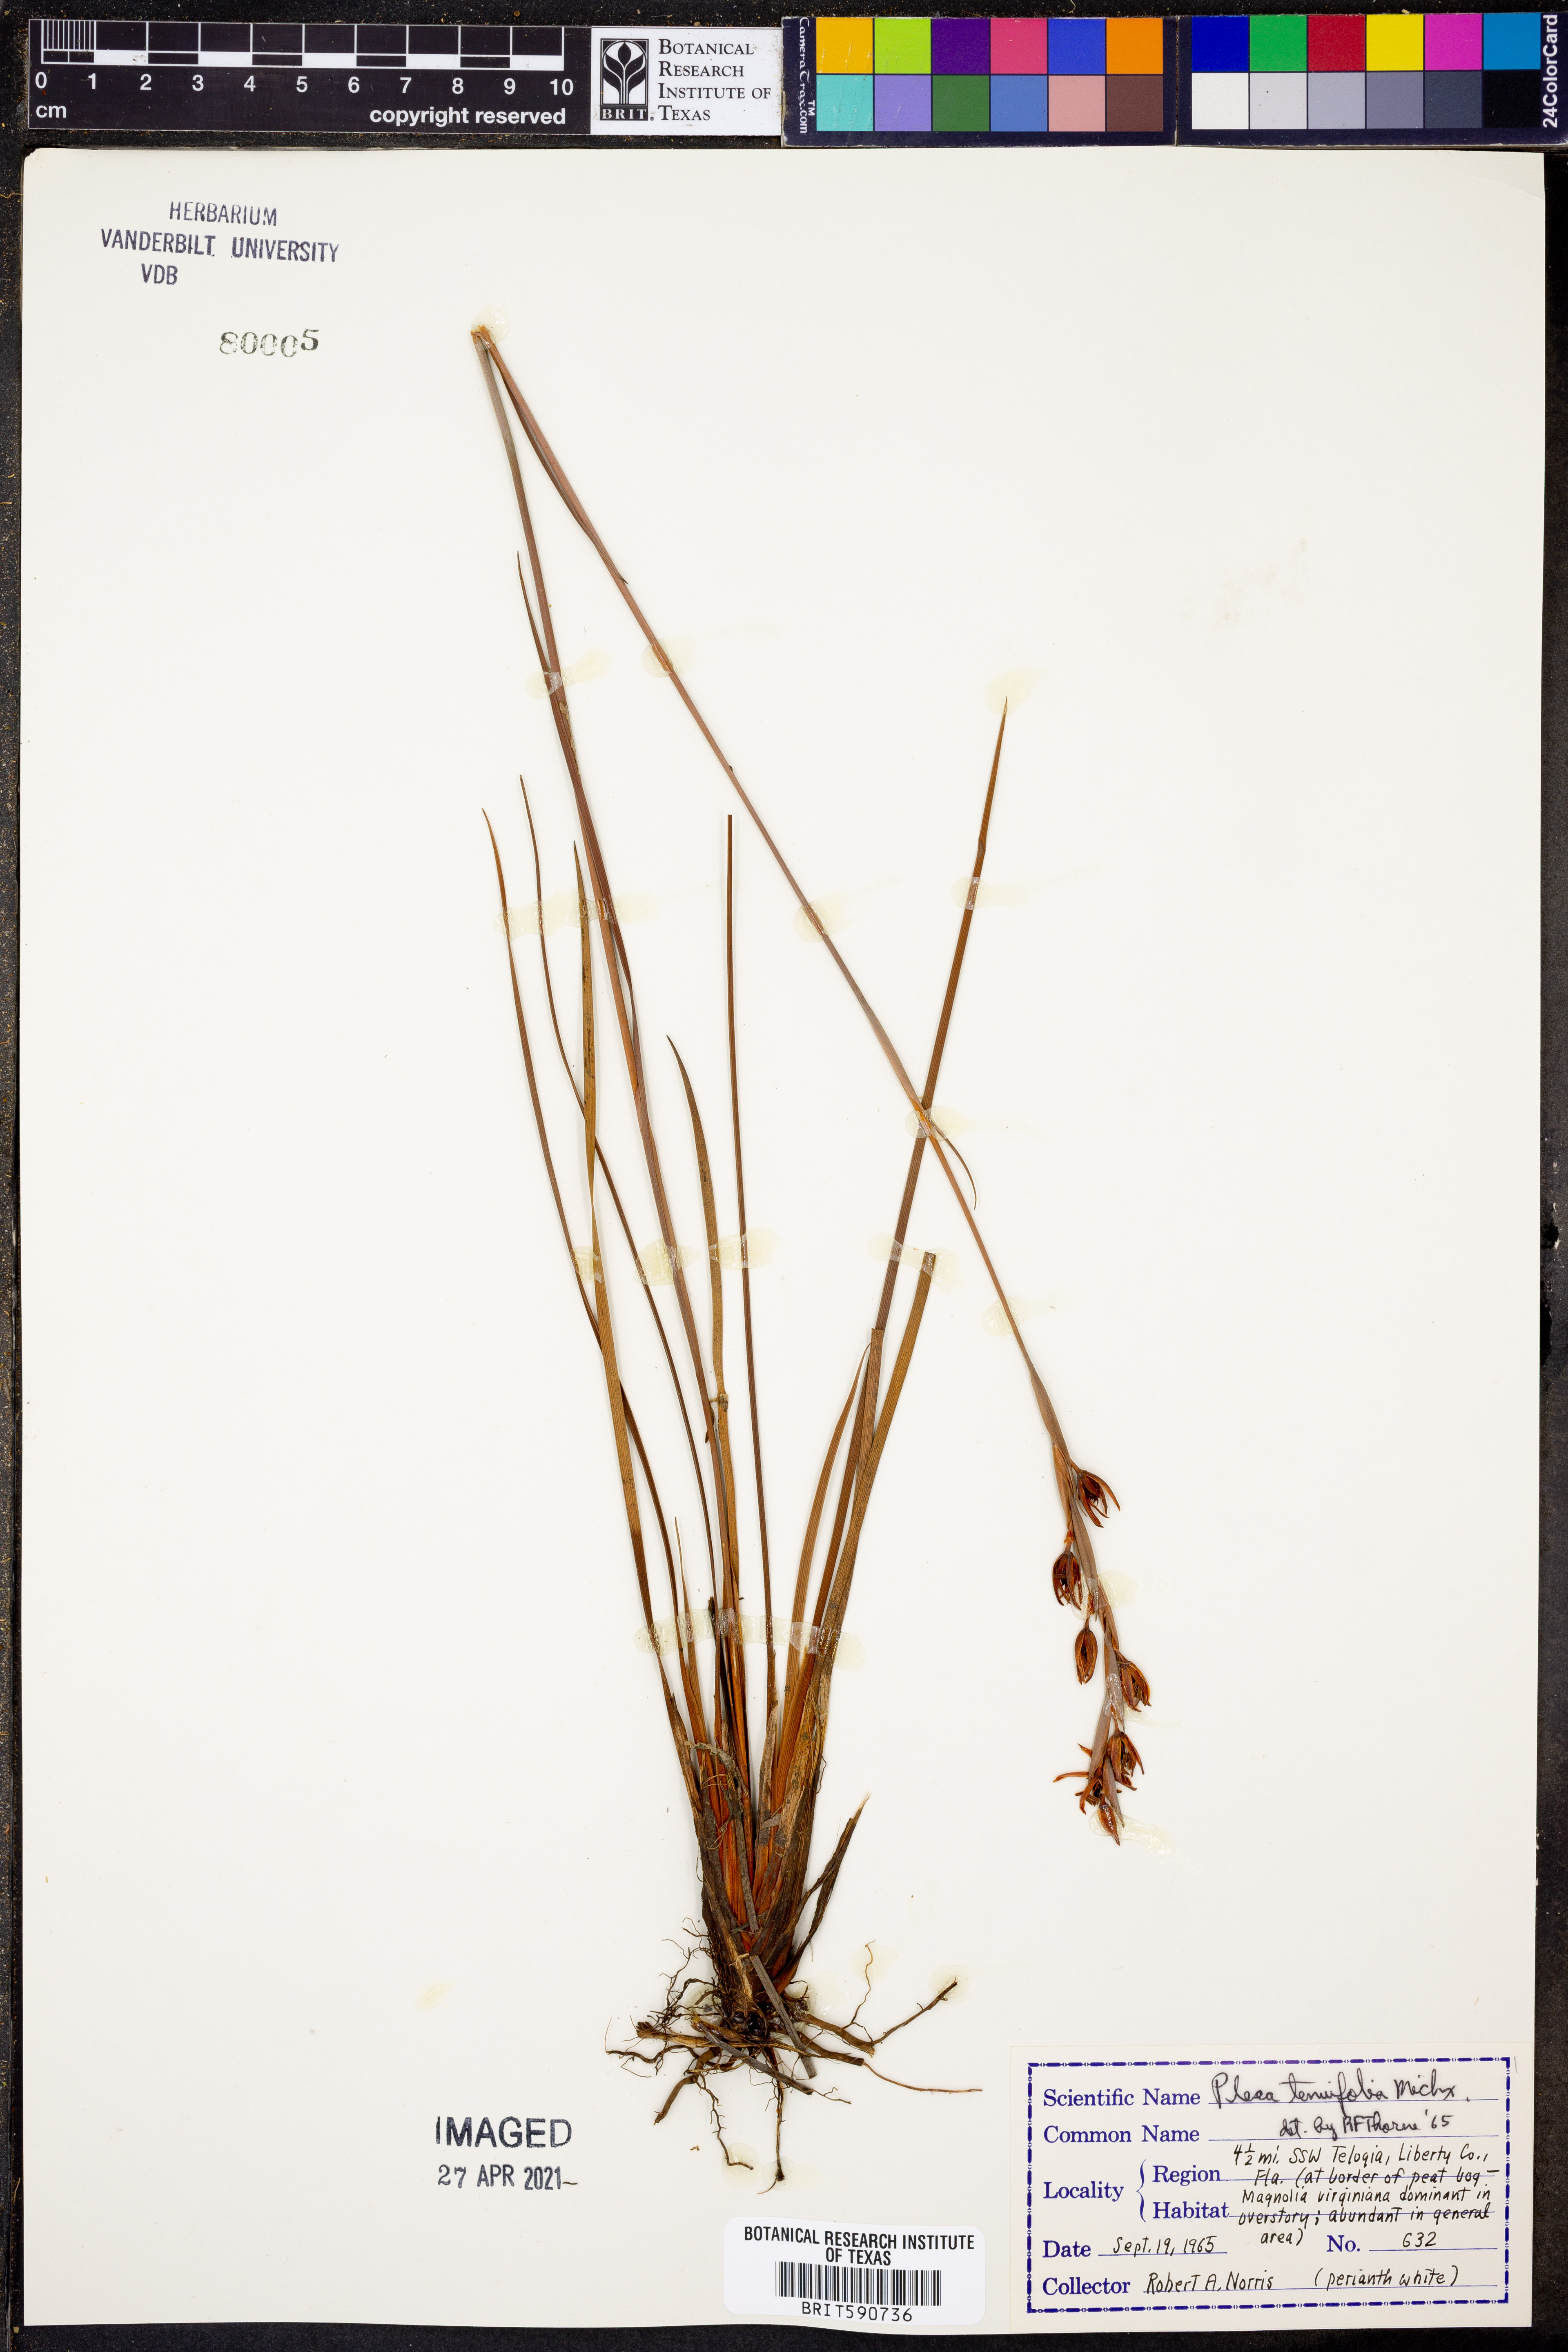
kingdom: Plantae
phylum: Tracheophyta
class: Liliopsida
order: Alismatales
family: Tofieldiaceae
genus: Pleea
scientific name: Pleea tenuifolia
